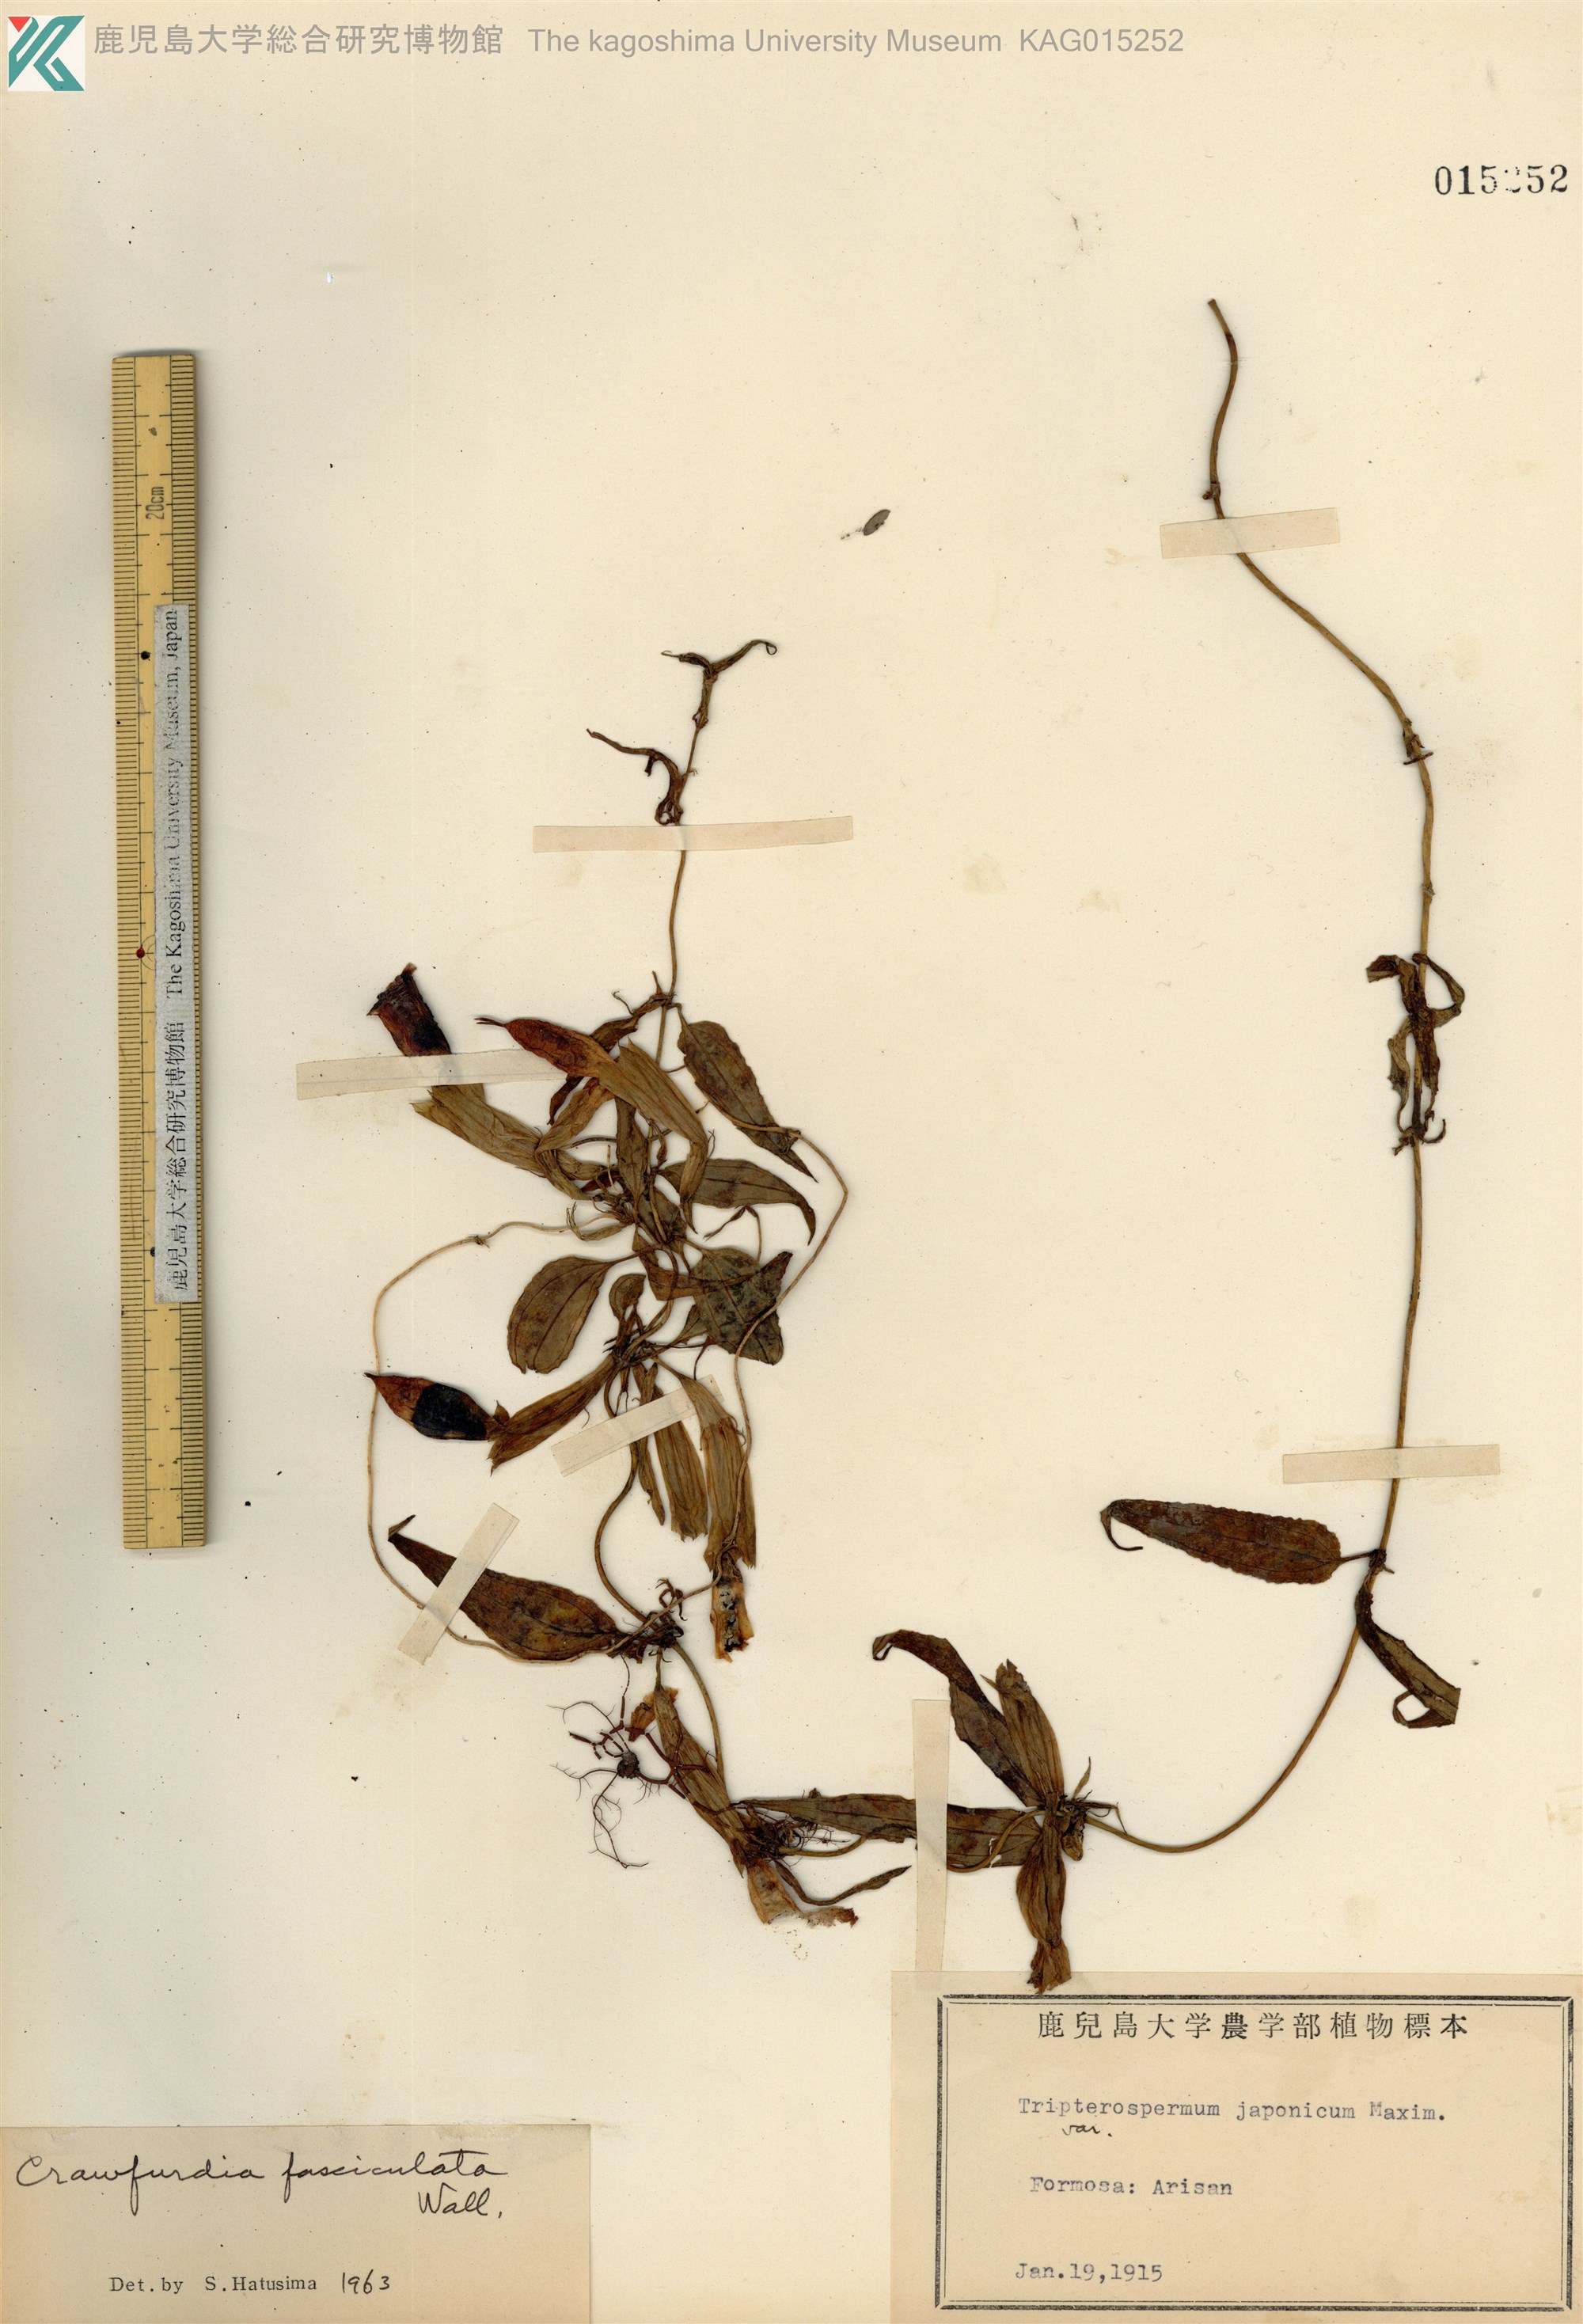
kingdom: Plantae
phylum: Tracheophyta
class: Magnoliopsida
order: Gentianales
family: Gentianaceae
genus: Tripterospermum
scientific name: Tripterospermum lanceolatum
